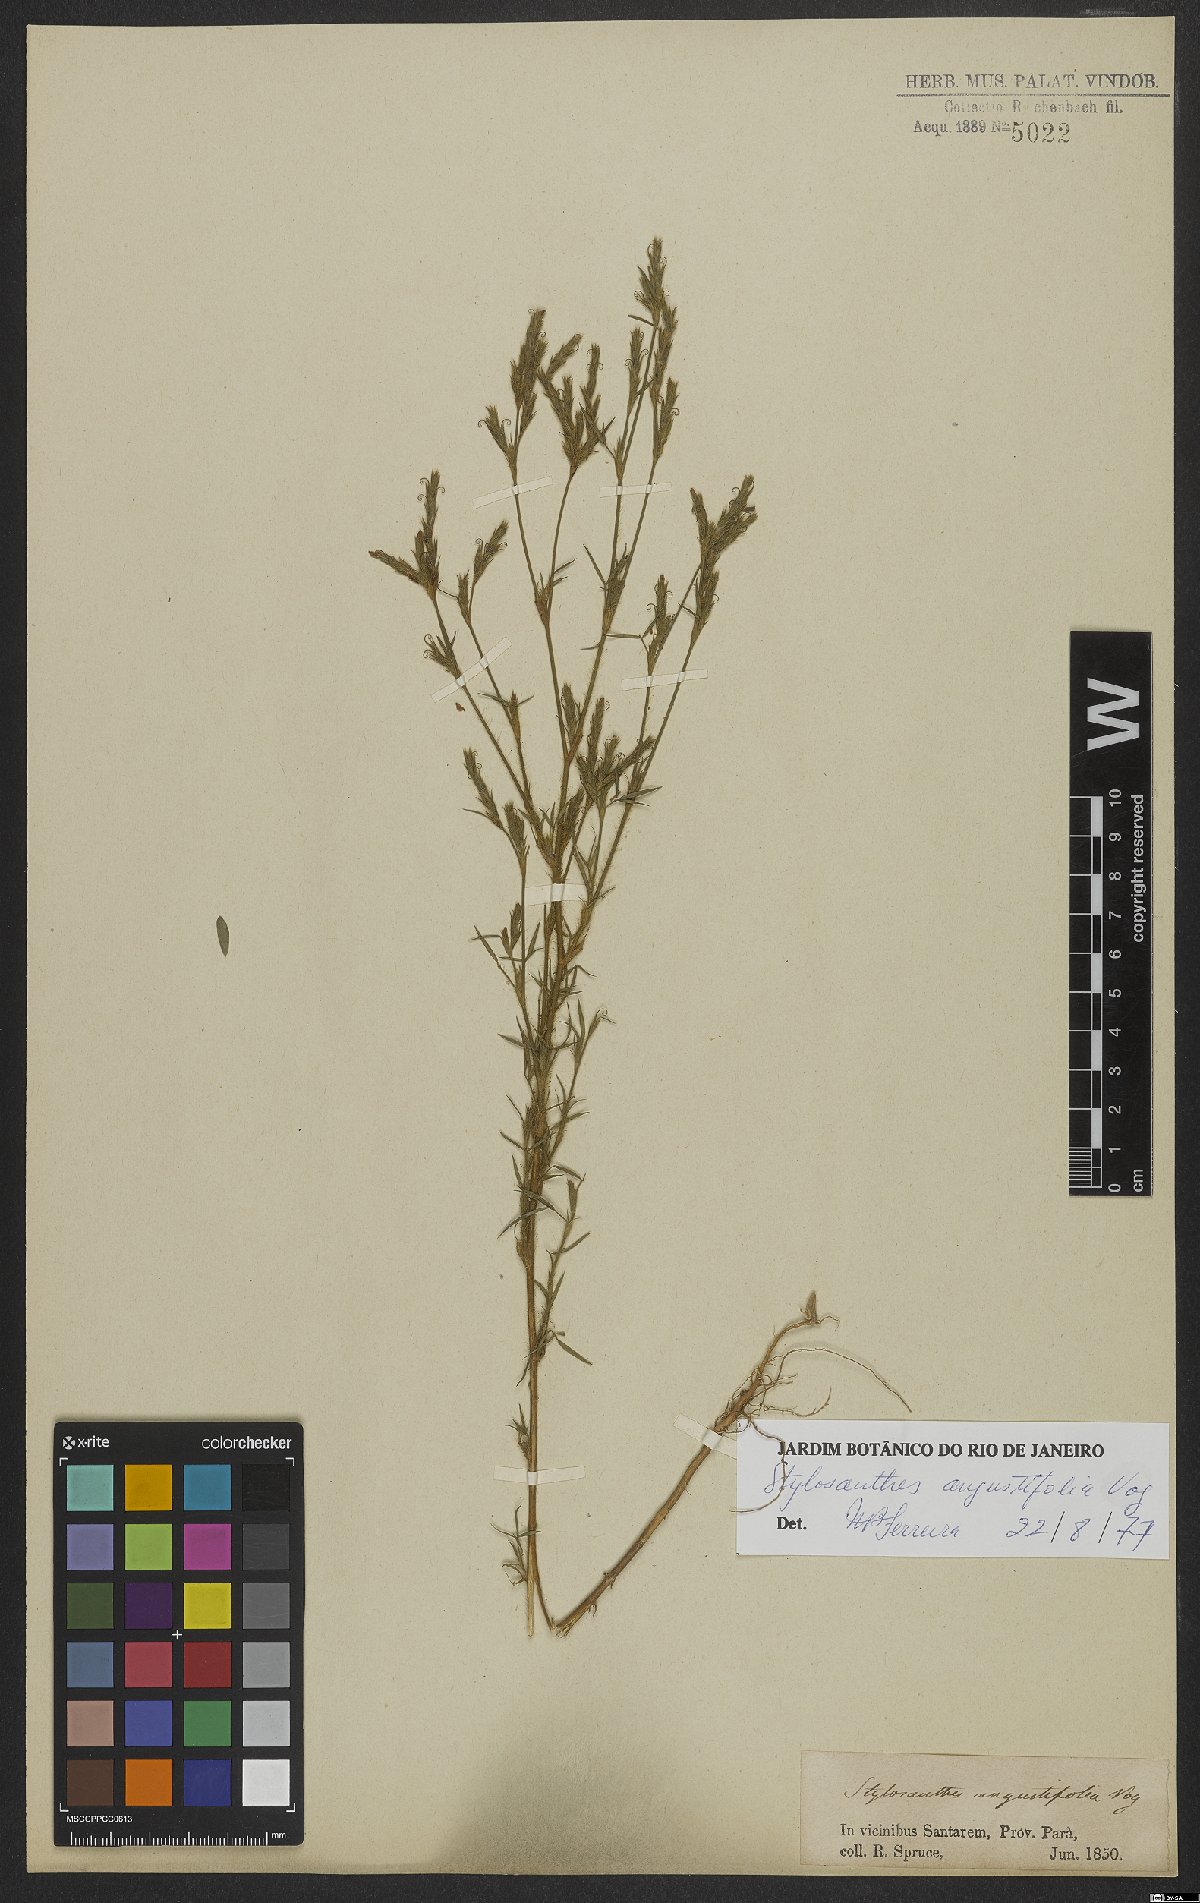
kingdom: Plantae
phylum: Tracheophyta
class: Magnoliopsida
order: Fabales
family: Fabaceae
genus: Stylosanthes
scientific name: Stylosanthes angustifolia
